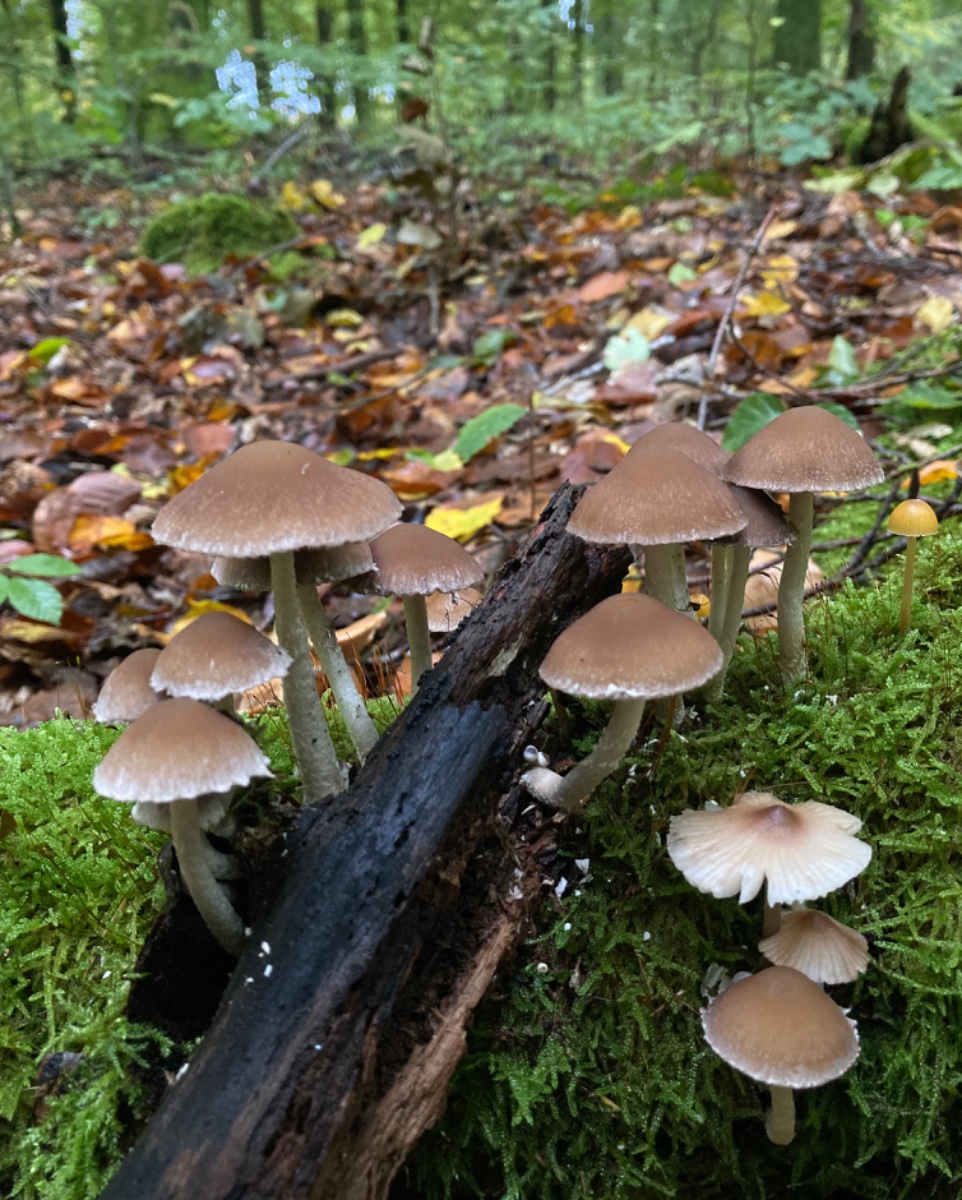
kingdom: Fungi
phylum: Basidiomycota
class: Agaricomycetes
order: Agaricales
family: Psathyrellaceae
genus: Psathyrella
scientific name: Psathyrella spintrigeroides
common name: tandet mørkhat
